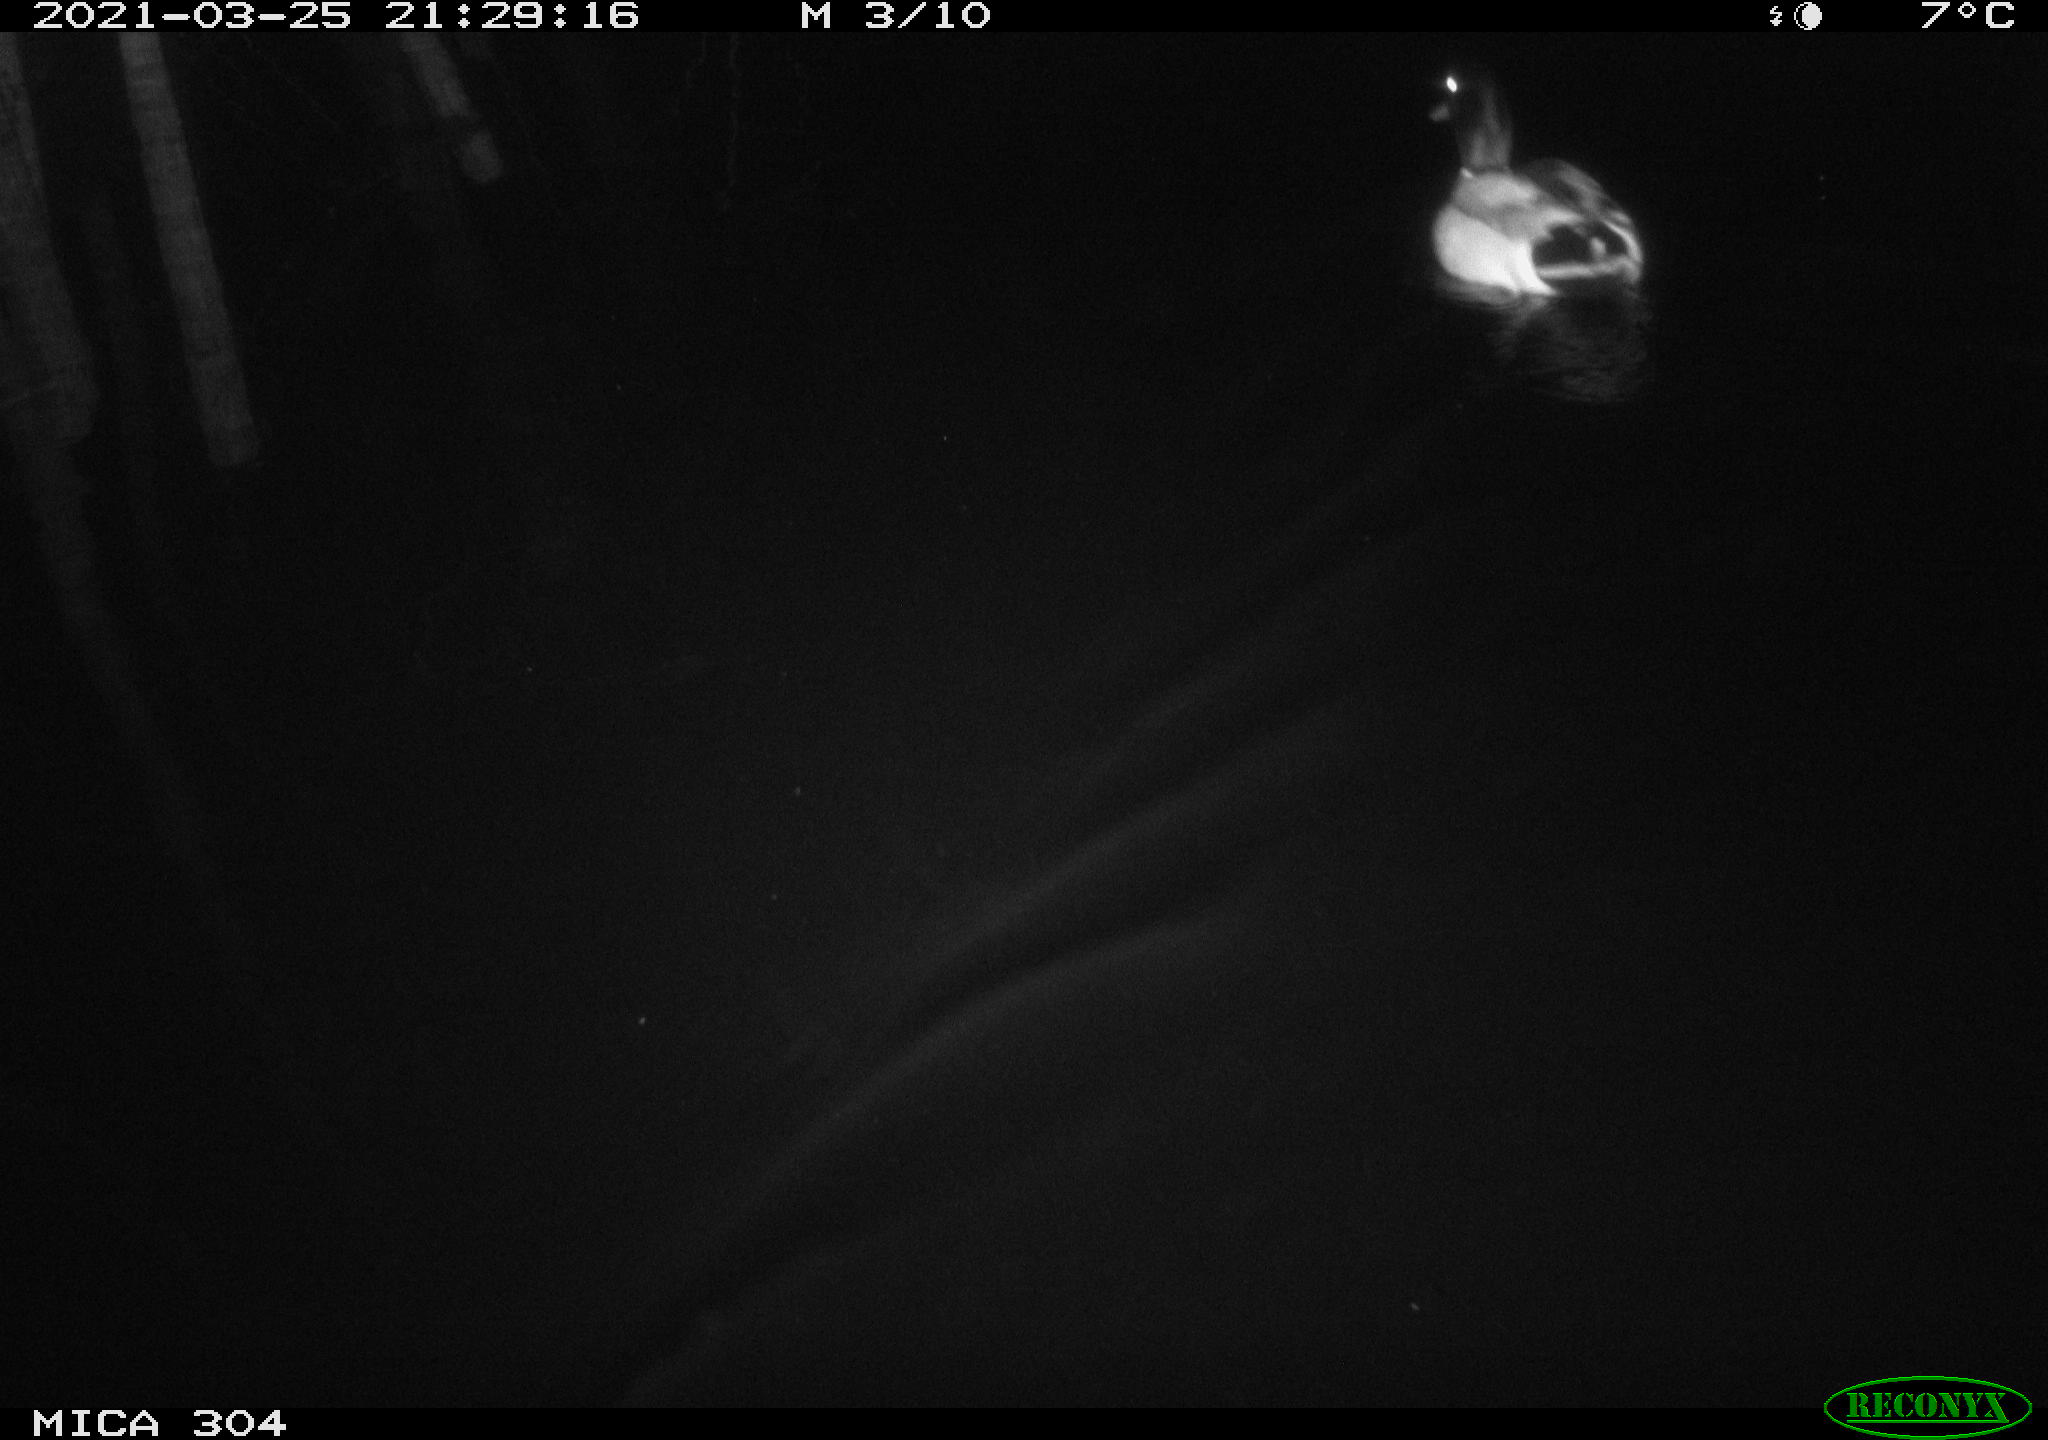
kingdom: Animalia
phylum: Chordata
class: Aves
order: Anseriformes
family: Anatidae
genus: Anas
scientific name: Anas platyrhynchos
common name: Mallard
